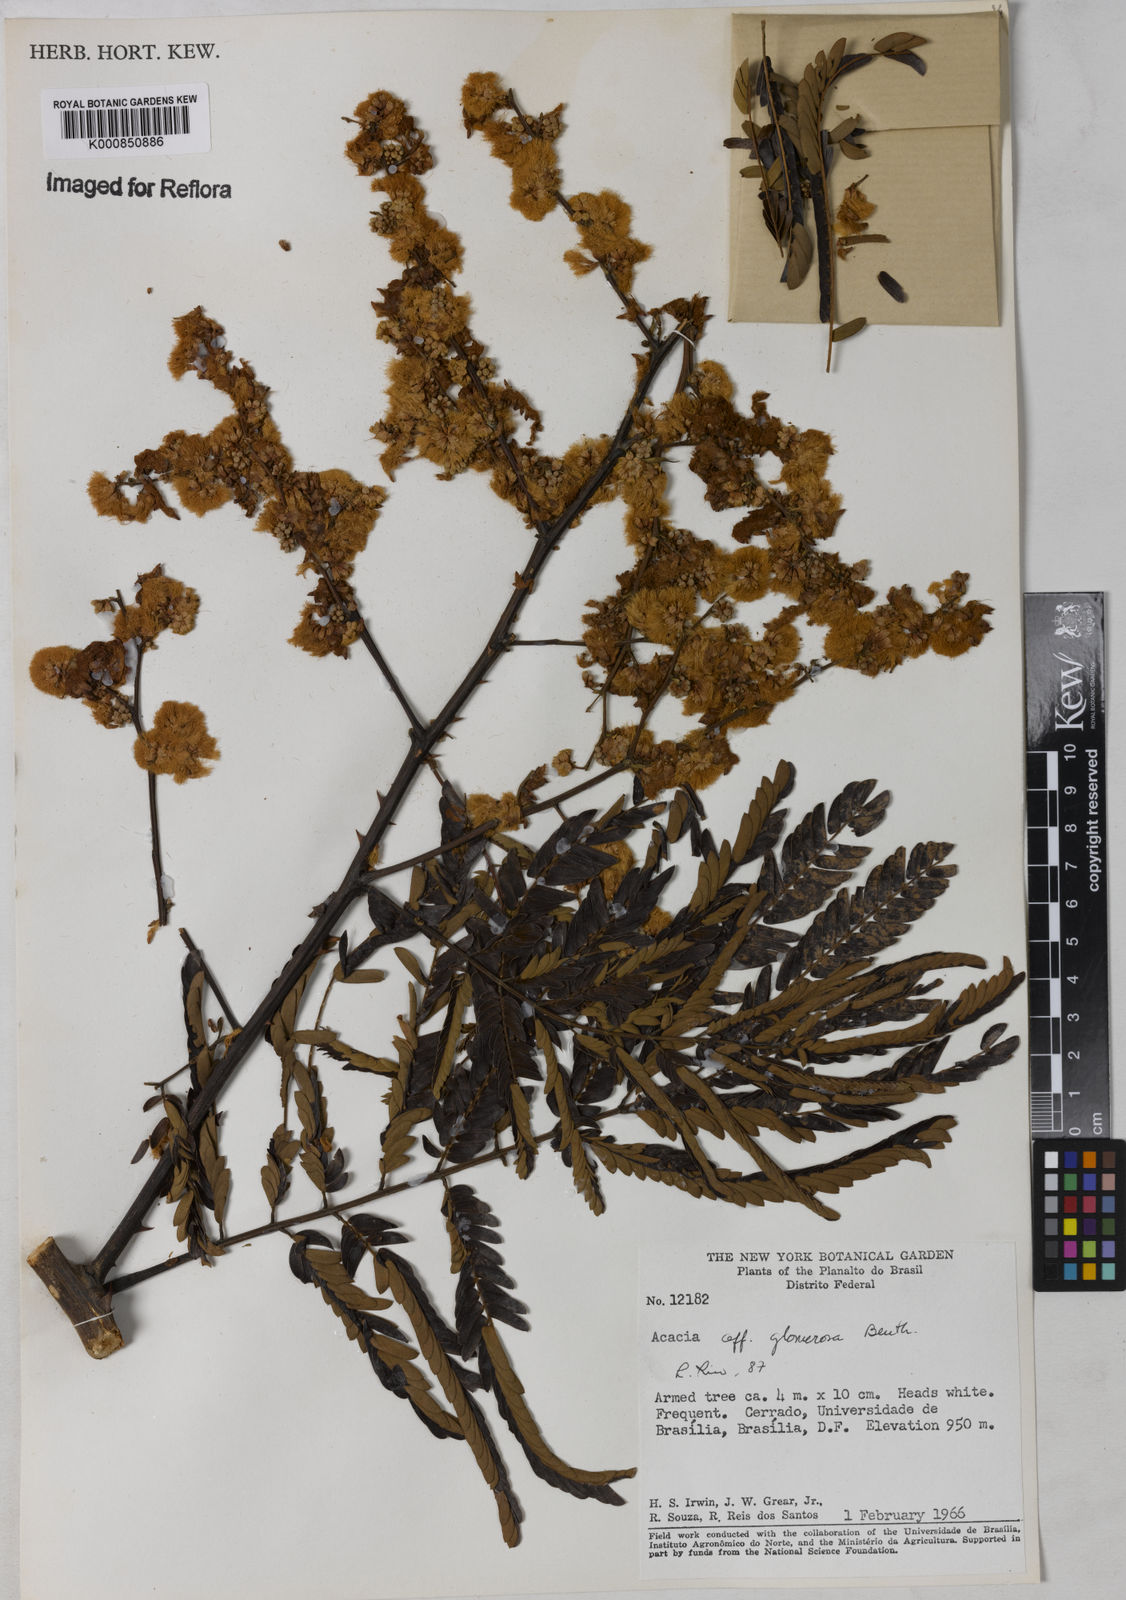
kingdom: Plantae
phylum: Tracheophyta
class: Magnoliopsida
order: Fabales
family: Fabaceae
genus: Senegalia
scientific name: Senegalia polyphylla
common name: White-tamarind
